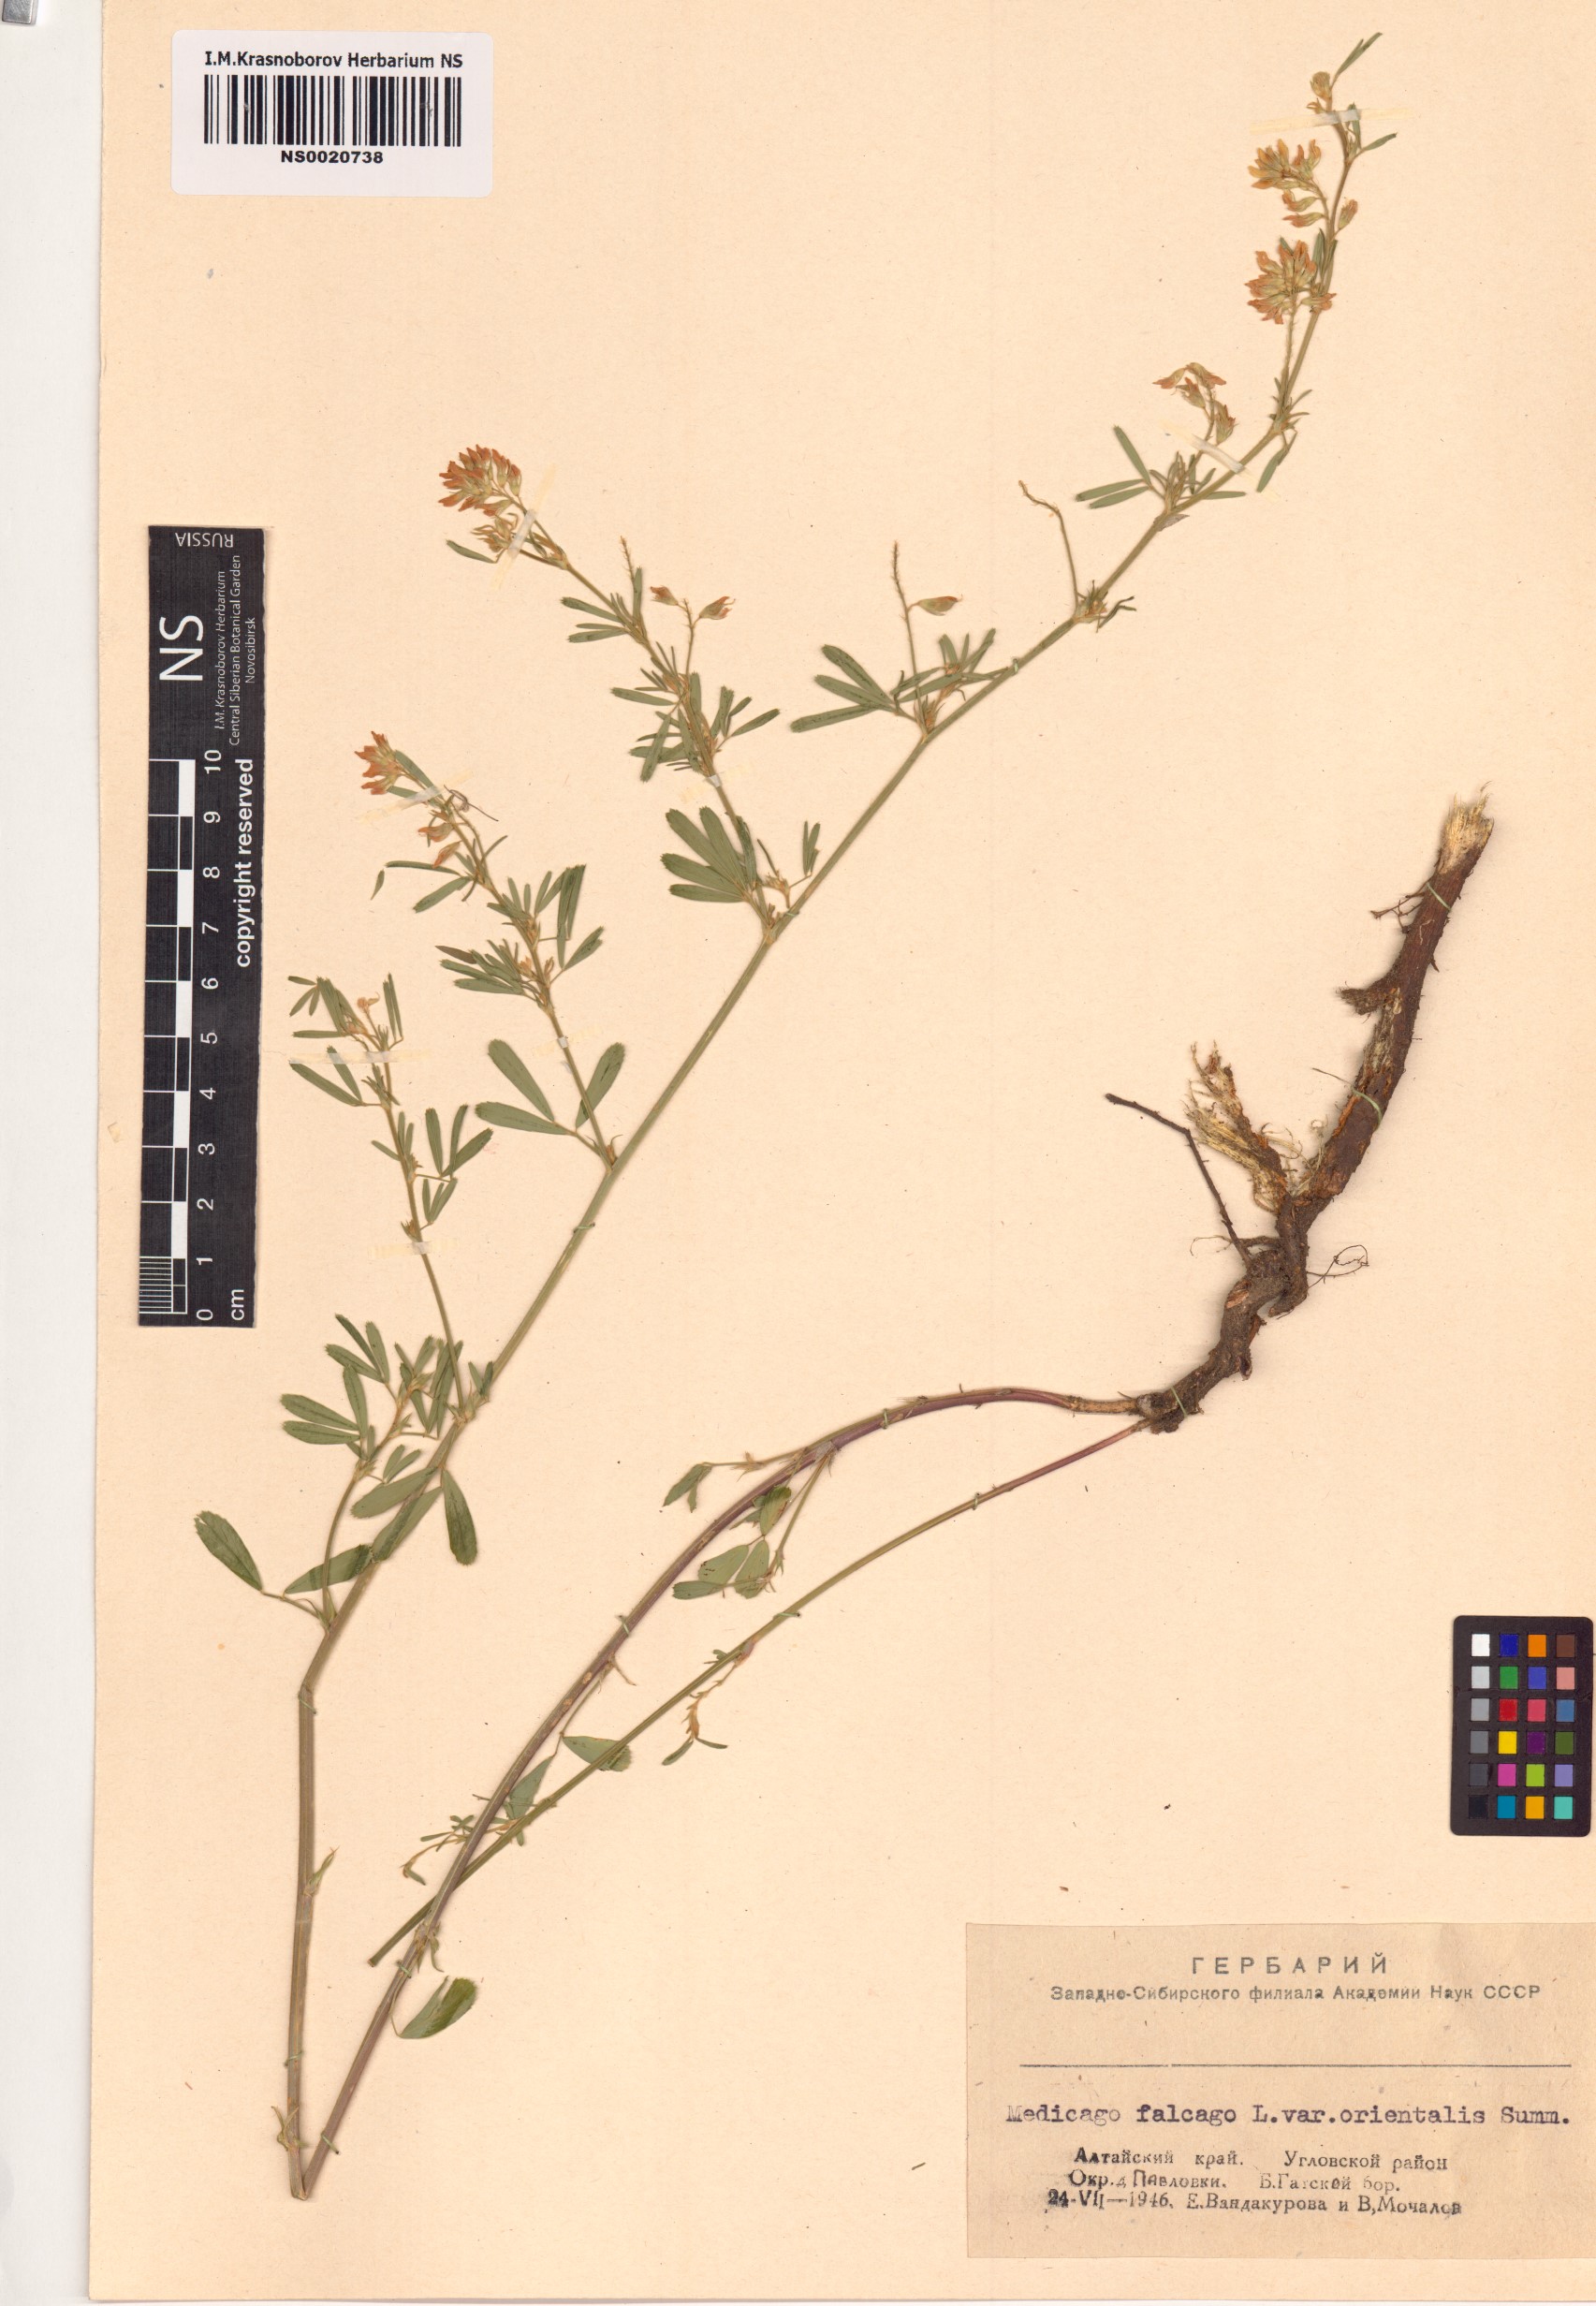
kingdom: Plantae
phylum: Tracheophyta
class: Magnoliopsida
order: Fabales
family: Fabaceae
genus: Medicago
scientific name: Medicago falcata
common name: Sickle medick
